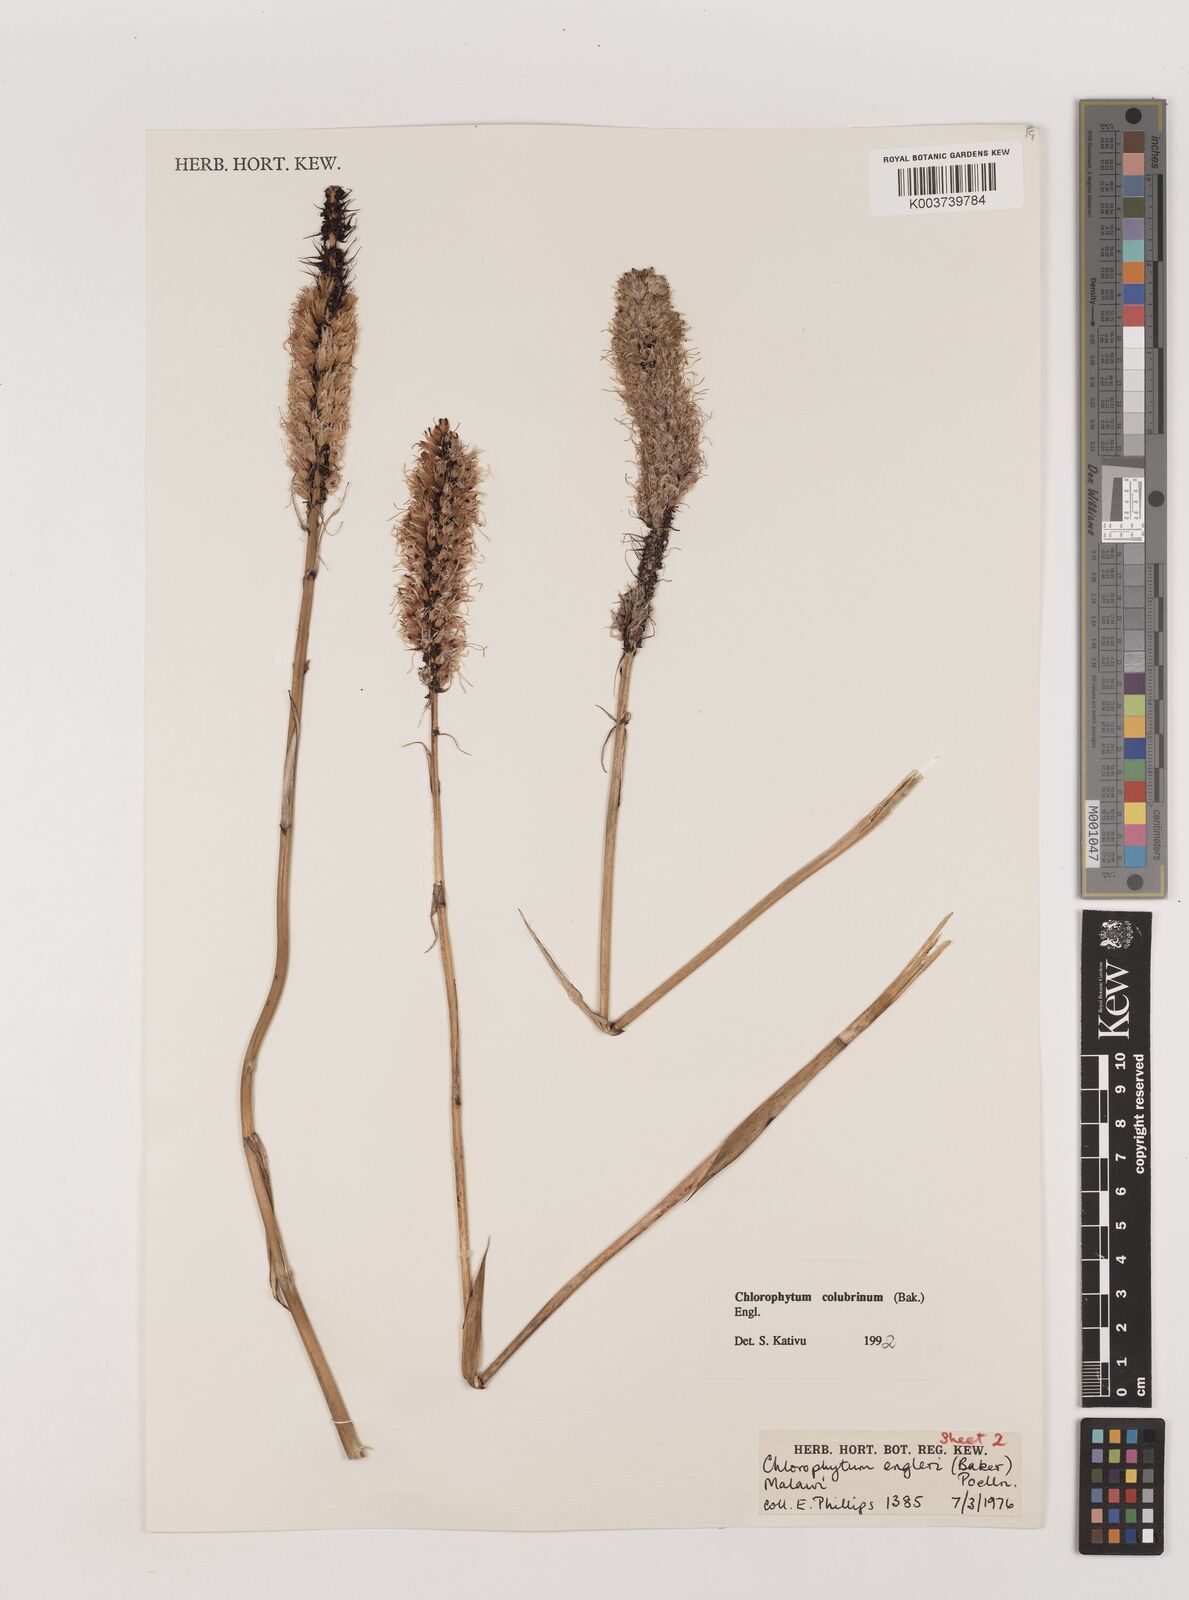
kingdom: Plantae
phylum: Tracheophyta
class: Liliopsida
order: Asparagales
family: Asparagaceae
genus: Chlorophytum
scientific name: Chlorophytum colubrinum
